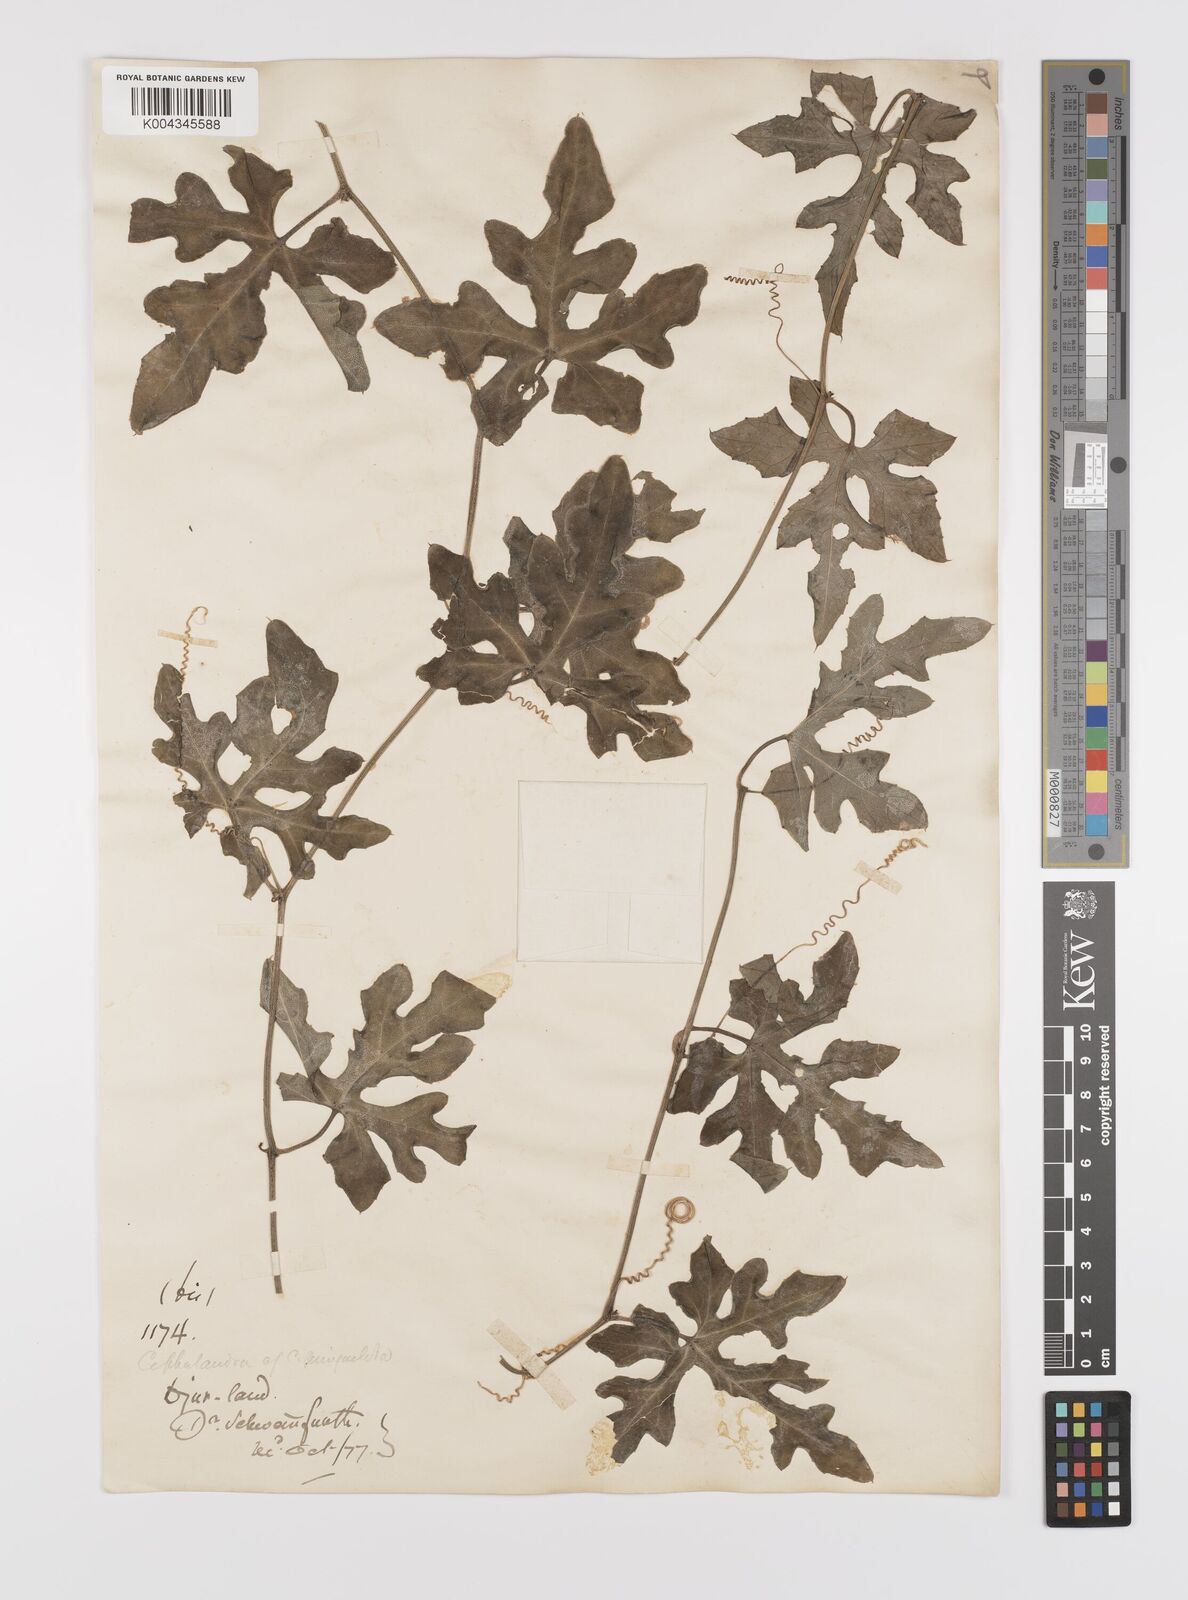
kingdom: Plantae
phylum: Tracheophyta
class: Magnoliopsida
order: Cucurbitales
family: Cucurbitaceae
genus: Coccinia
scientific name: Coccinia grandis
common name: Ivy gourd
